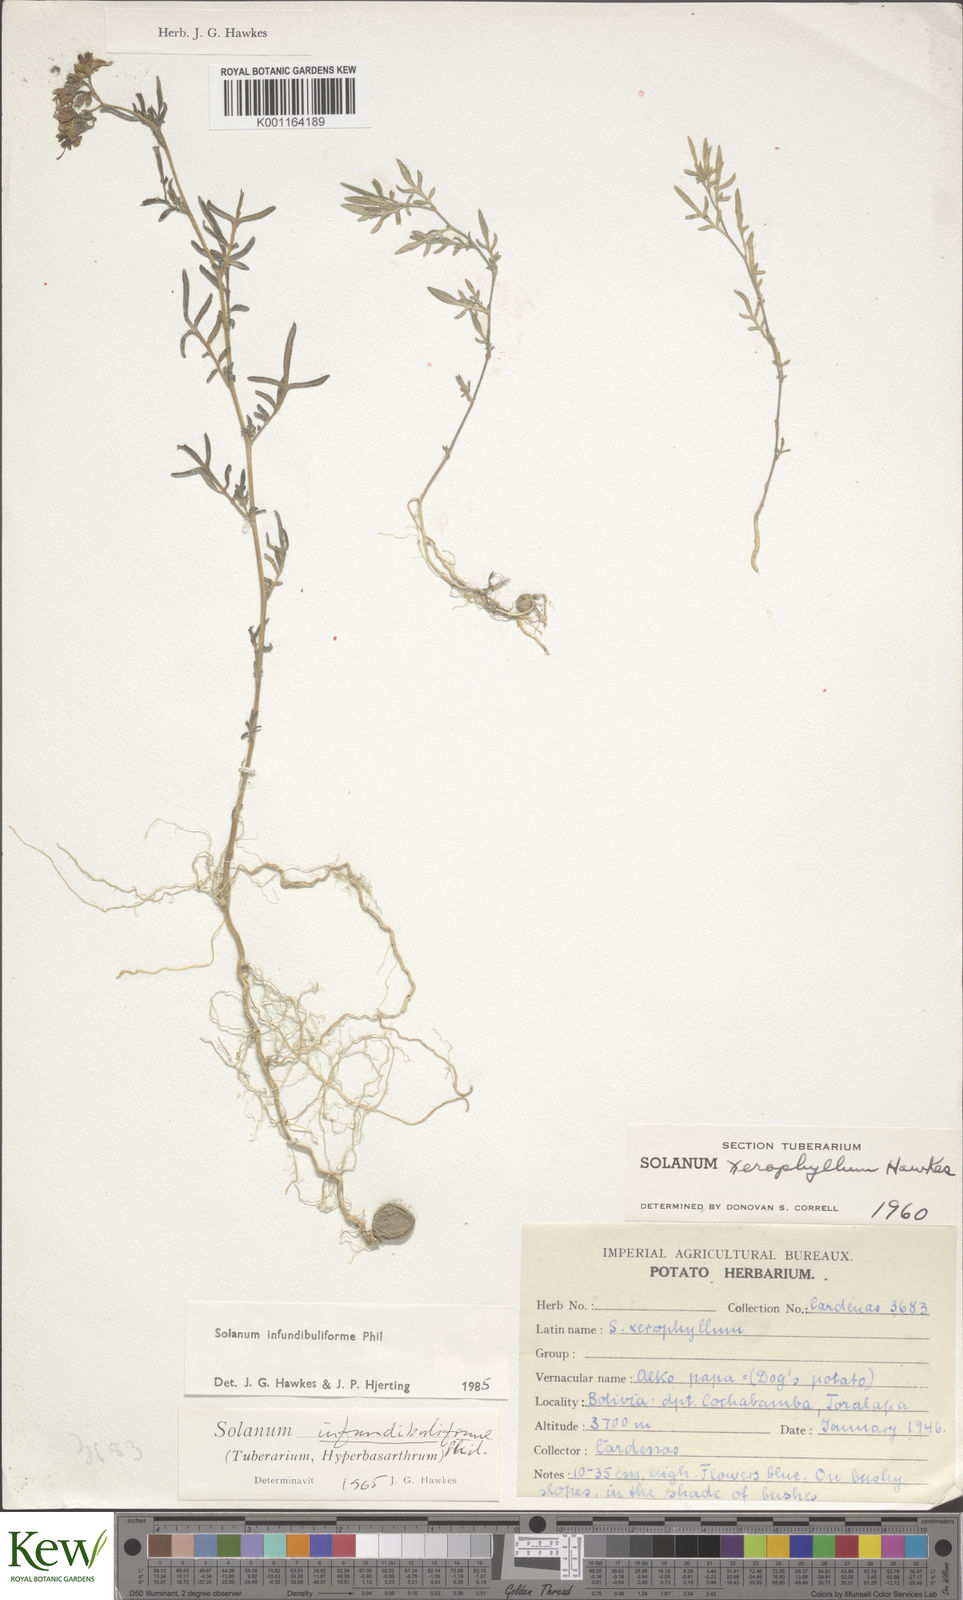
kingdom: Plantae
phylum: Tracheophyta
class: Magnoliopsida
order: Solanales
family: Solanaceae
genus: Solanum
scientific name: Solanum infundibuliforme
